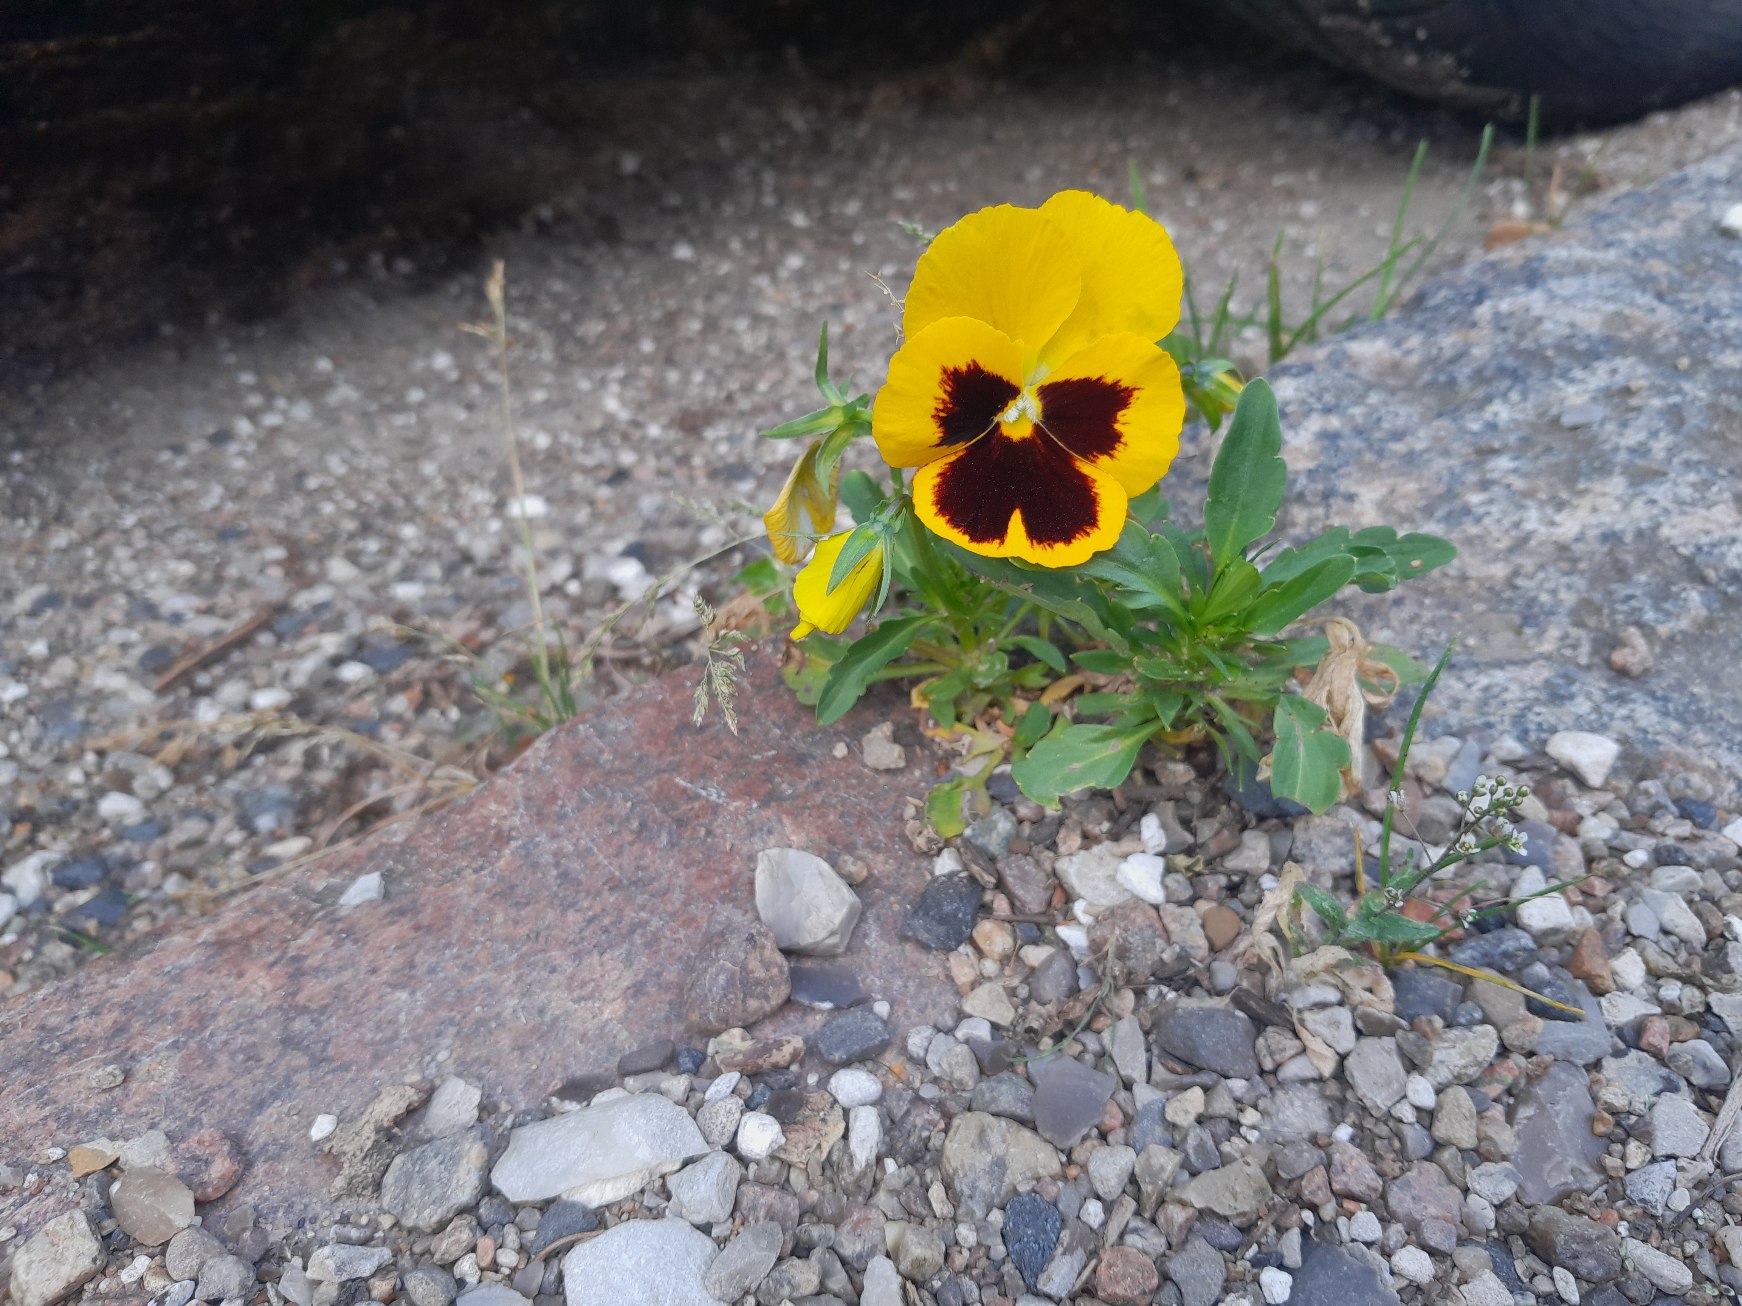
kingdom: Plantae
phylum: Tracheophyta
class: Magnoliopsida
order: Malpighiales
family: Violaceae
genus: Viola
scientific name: Viola wittrockiana
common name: Have-stedmoderblomst
